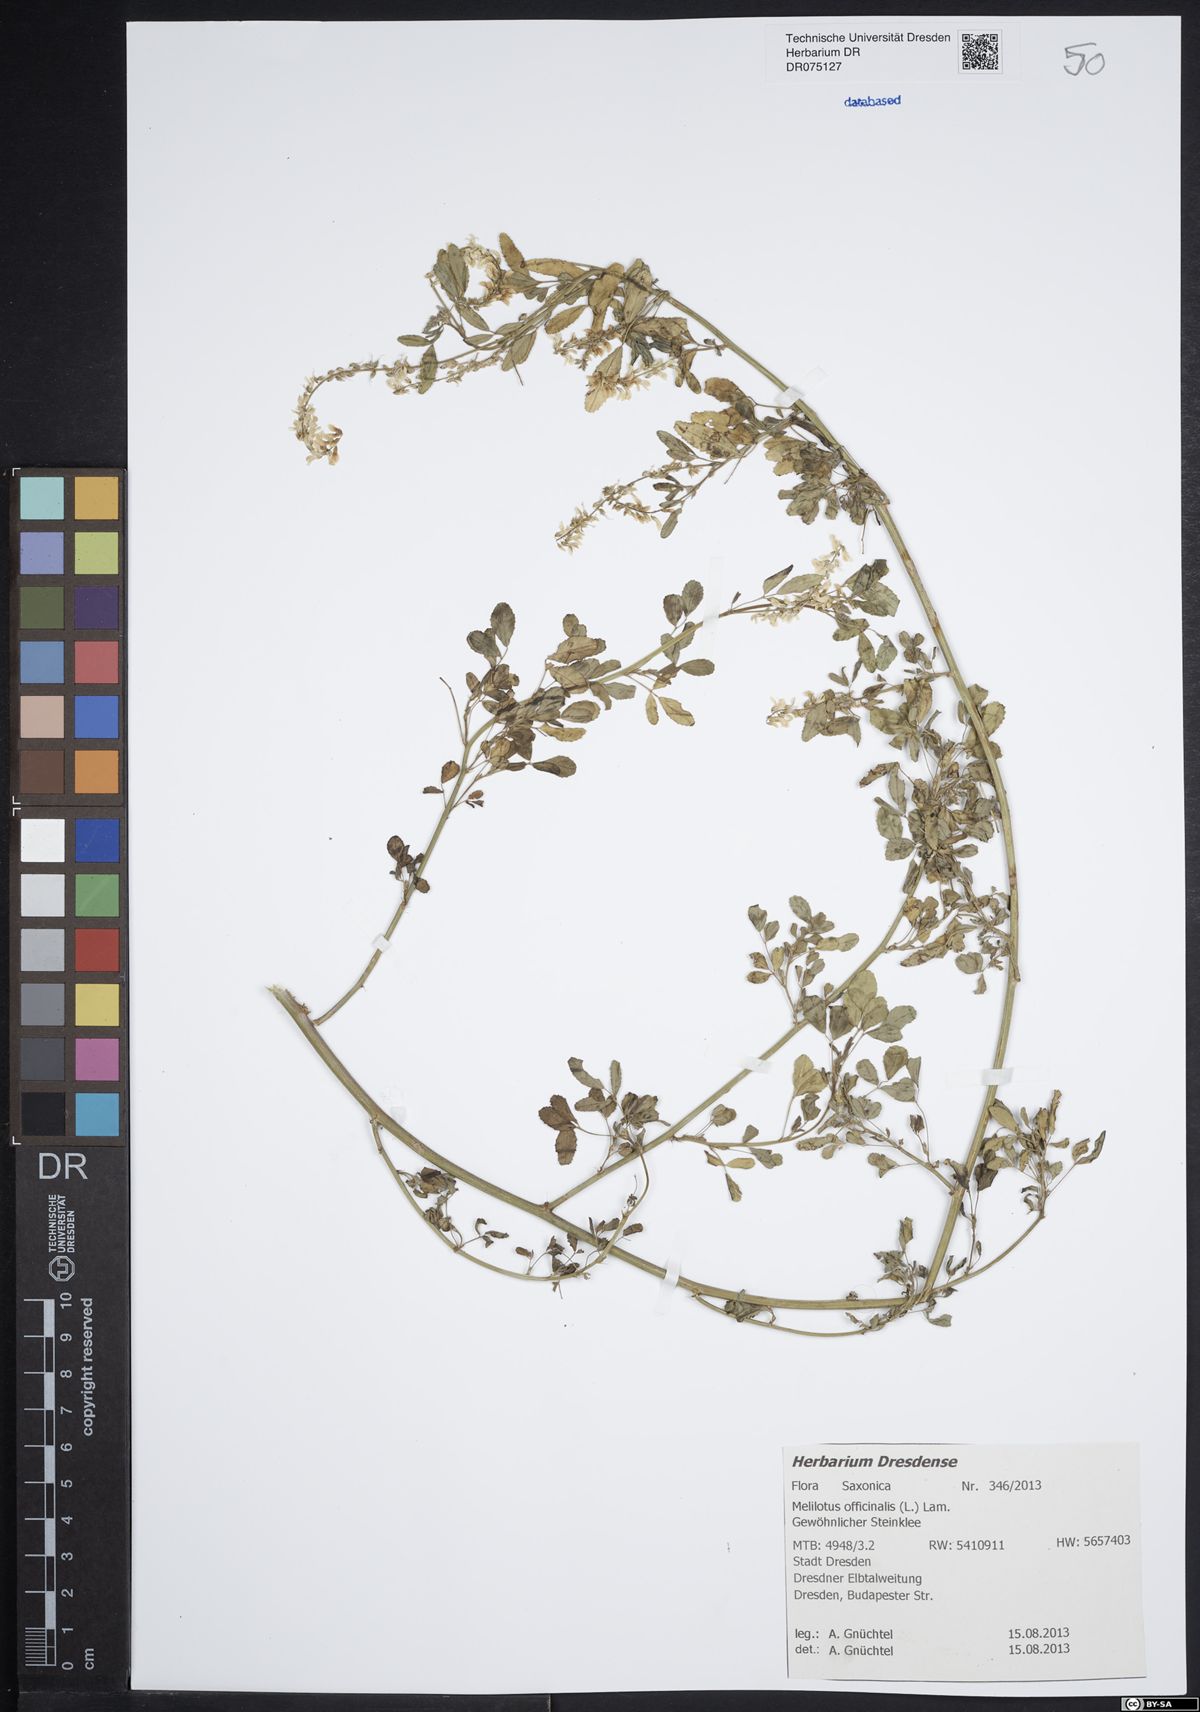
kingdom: Plantae
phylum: Tracheophyta
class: Magnoliopsida
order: Fabales
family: Fabaceae
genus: Melilotus
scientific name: Melilotus officinalis
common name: Sweetclover
